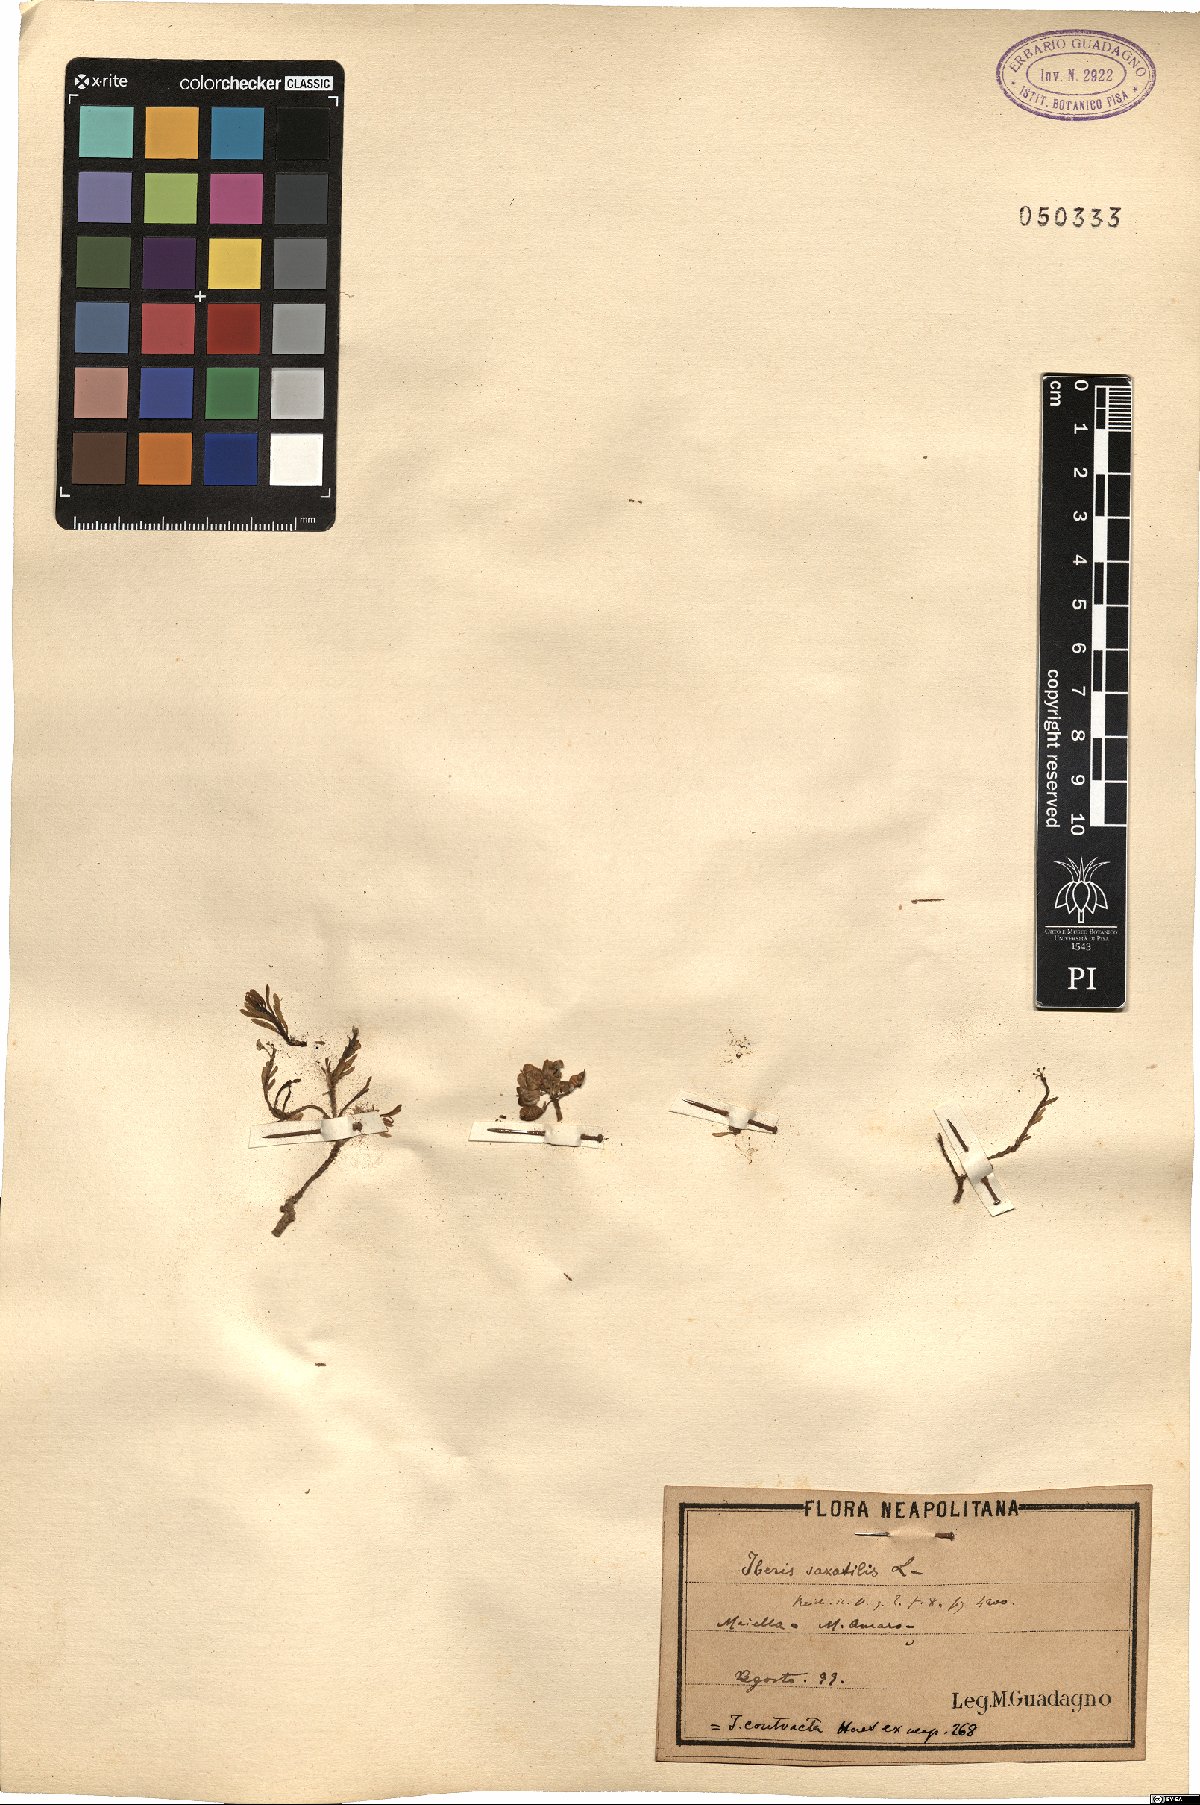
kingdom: Plantae
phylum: Tracheophyta
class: Magnoliopsida
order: Brassicales
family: Brassicaceae
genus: Iberis
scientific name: Iberis saxatilis
